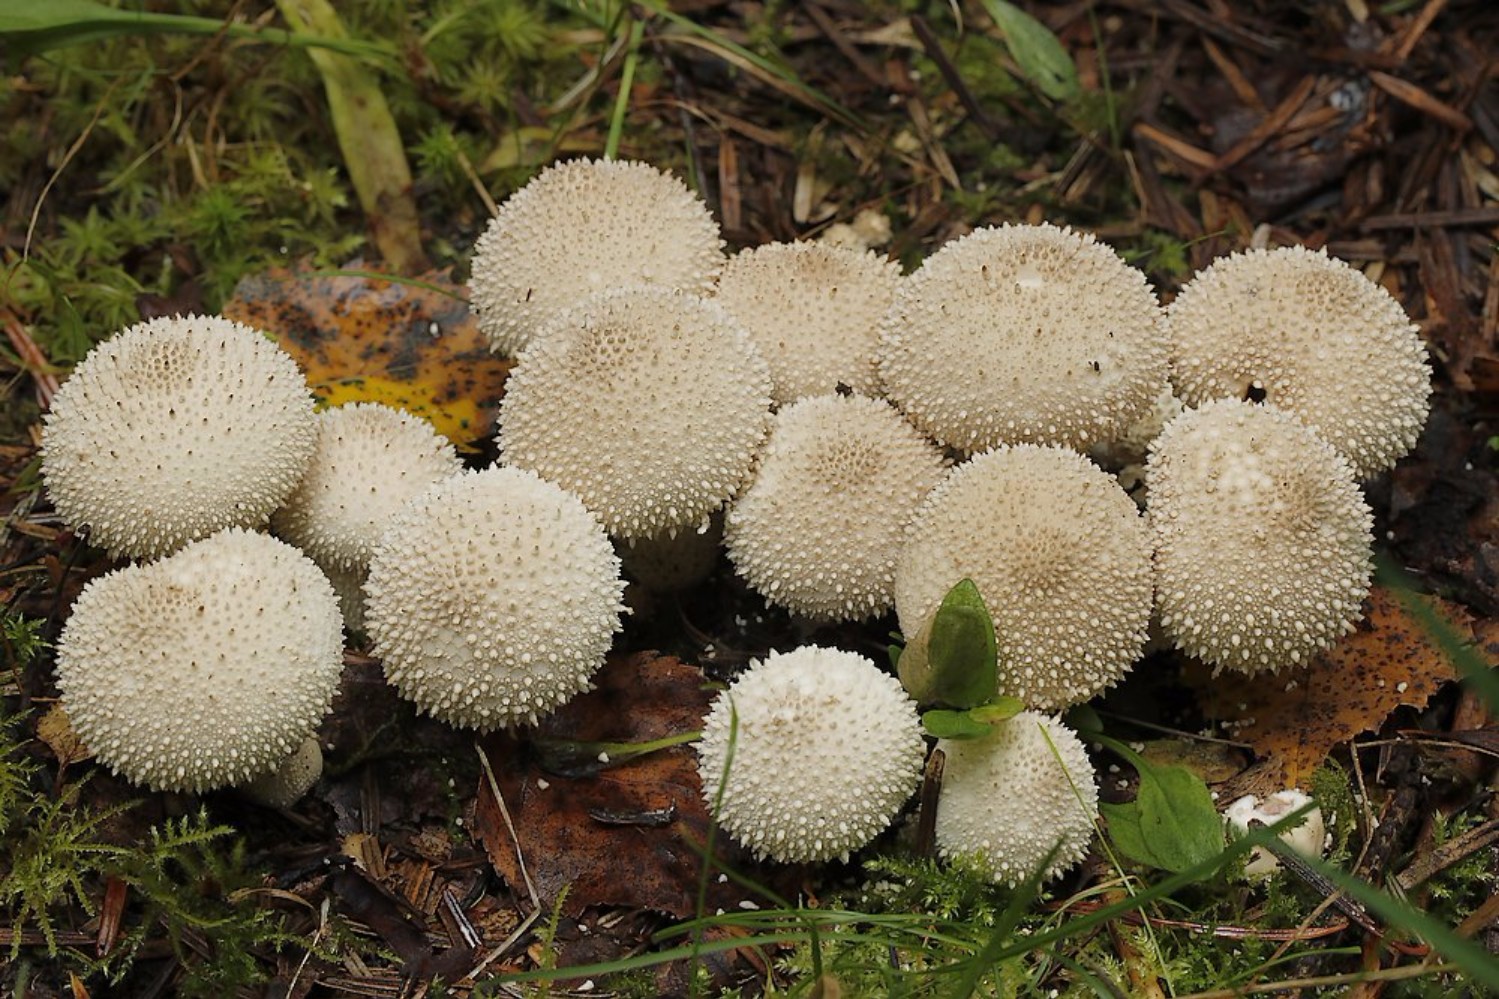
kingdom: Fungi
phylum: Basidiomycota
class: Agaricomycetes
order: Agaricales
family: Lycoperdaceae
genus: Lycoperdon
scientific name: Lycoperdon perlatum
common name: krystal-støvbold
